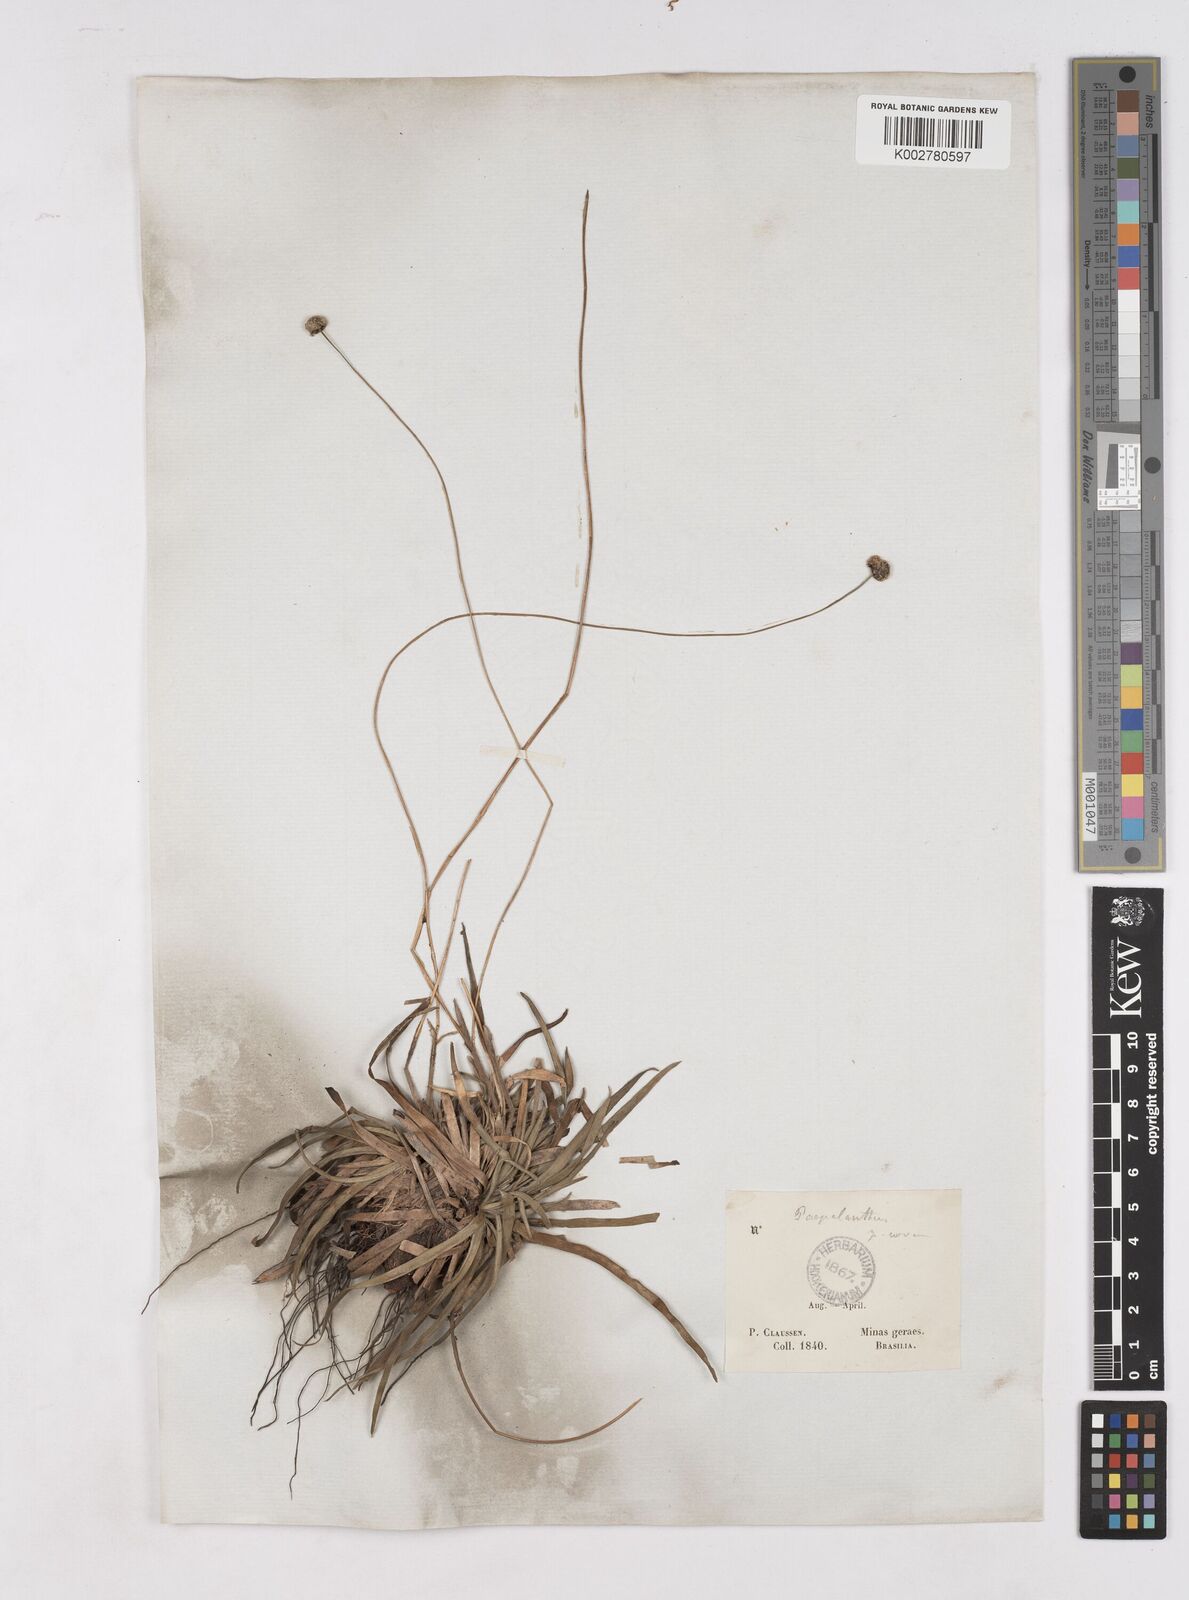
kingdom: Plantae
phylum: Tracheophyta
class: Liliopsida
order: Poales
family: Eriocaulaceae
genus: Paepalanthus
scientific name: Paepalanthus
